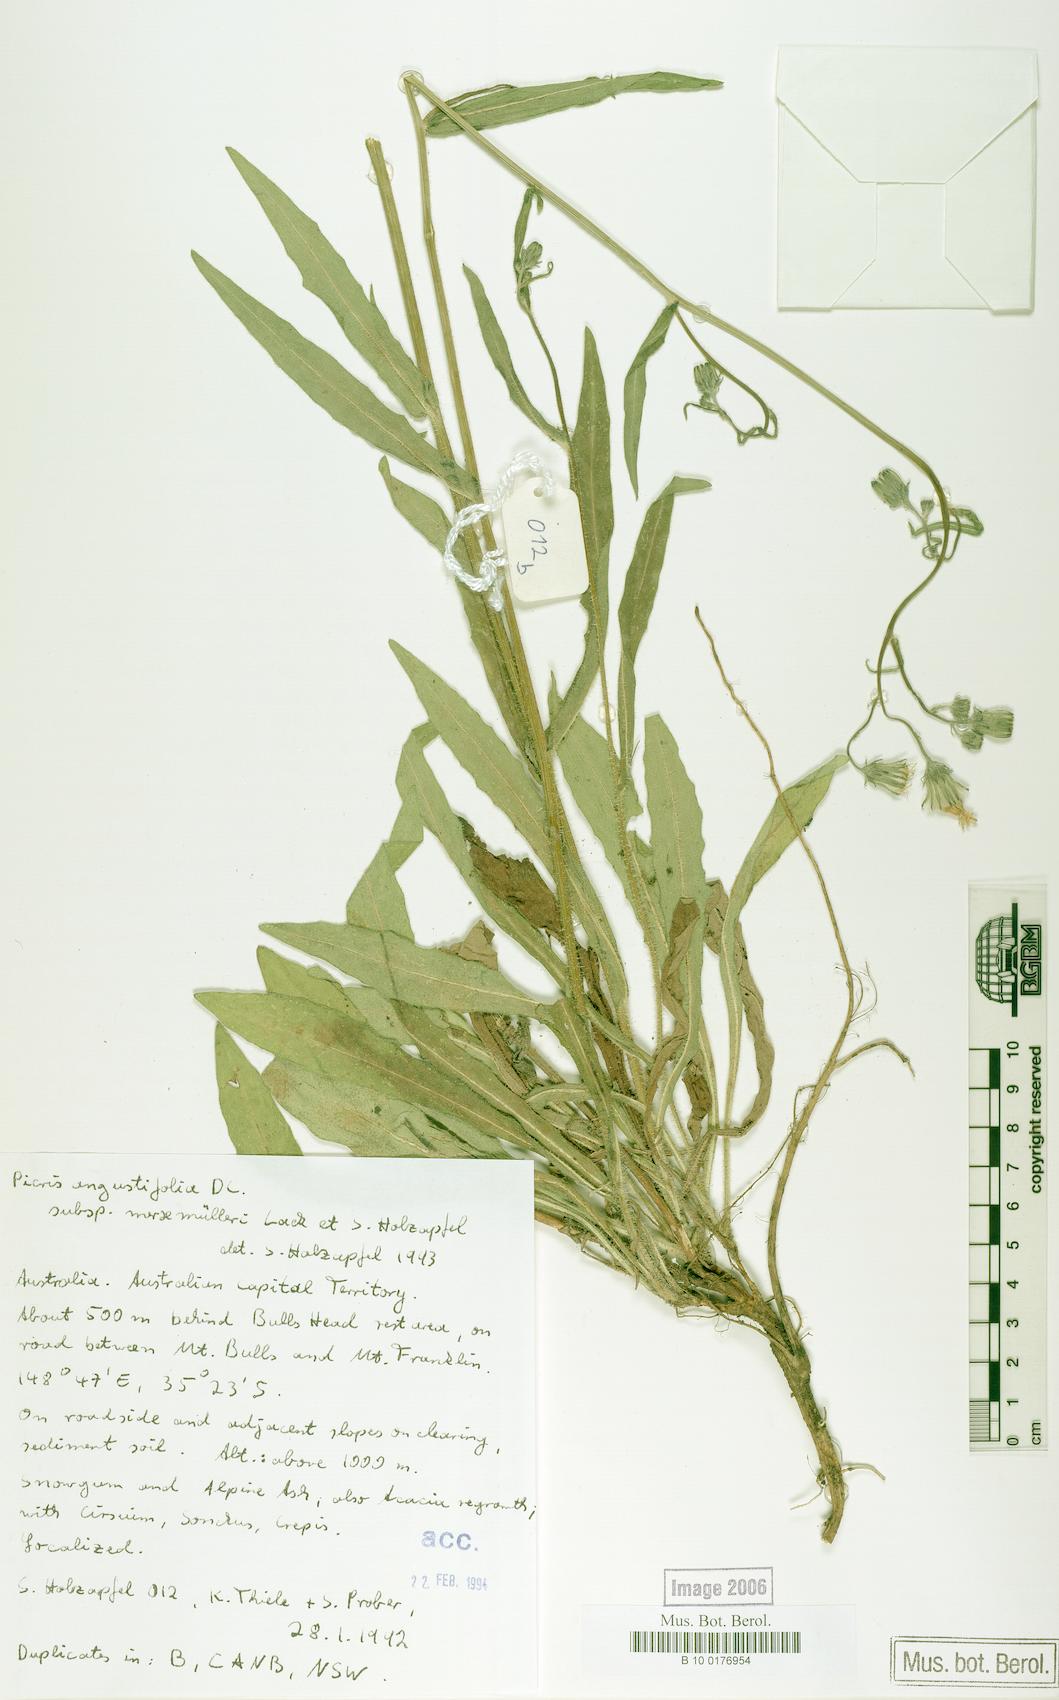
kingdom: Plantae
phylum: Tracheophyta
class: Magnoliopsida
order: Asterales
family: Asteraceae
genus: Picris
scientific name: Picris angustifolia
